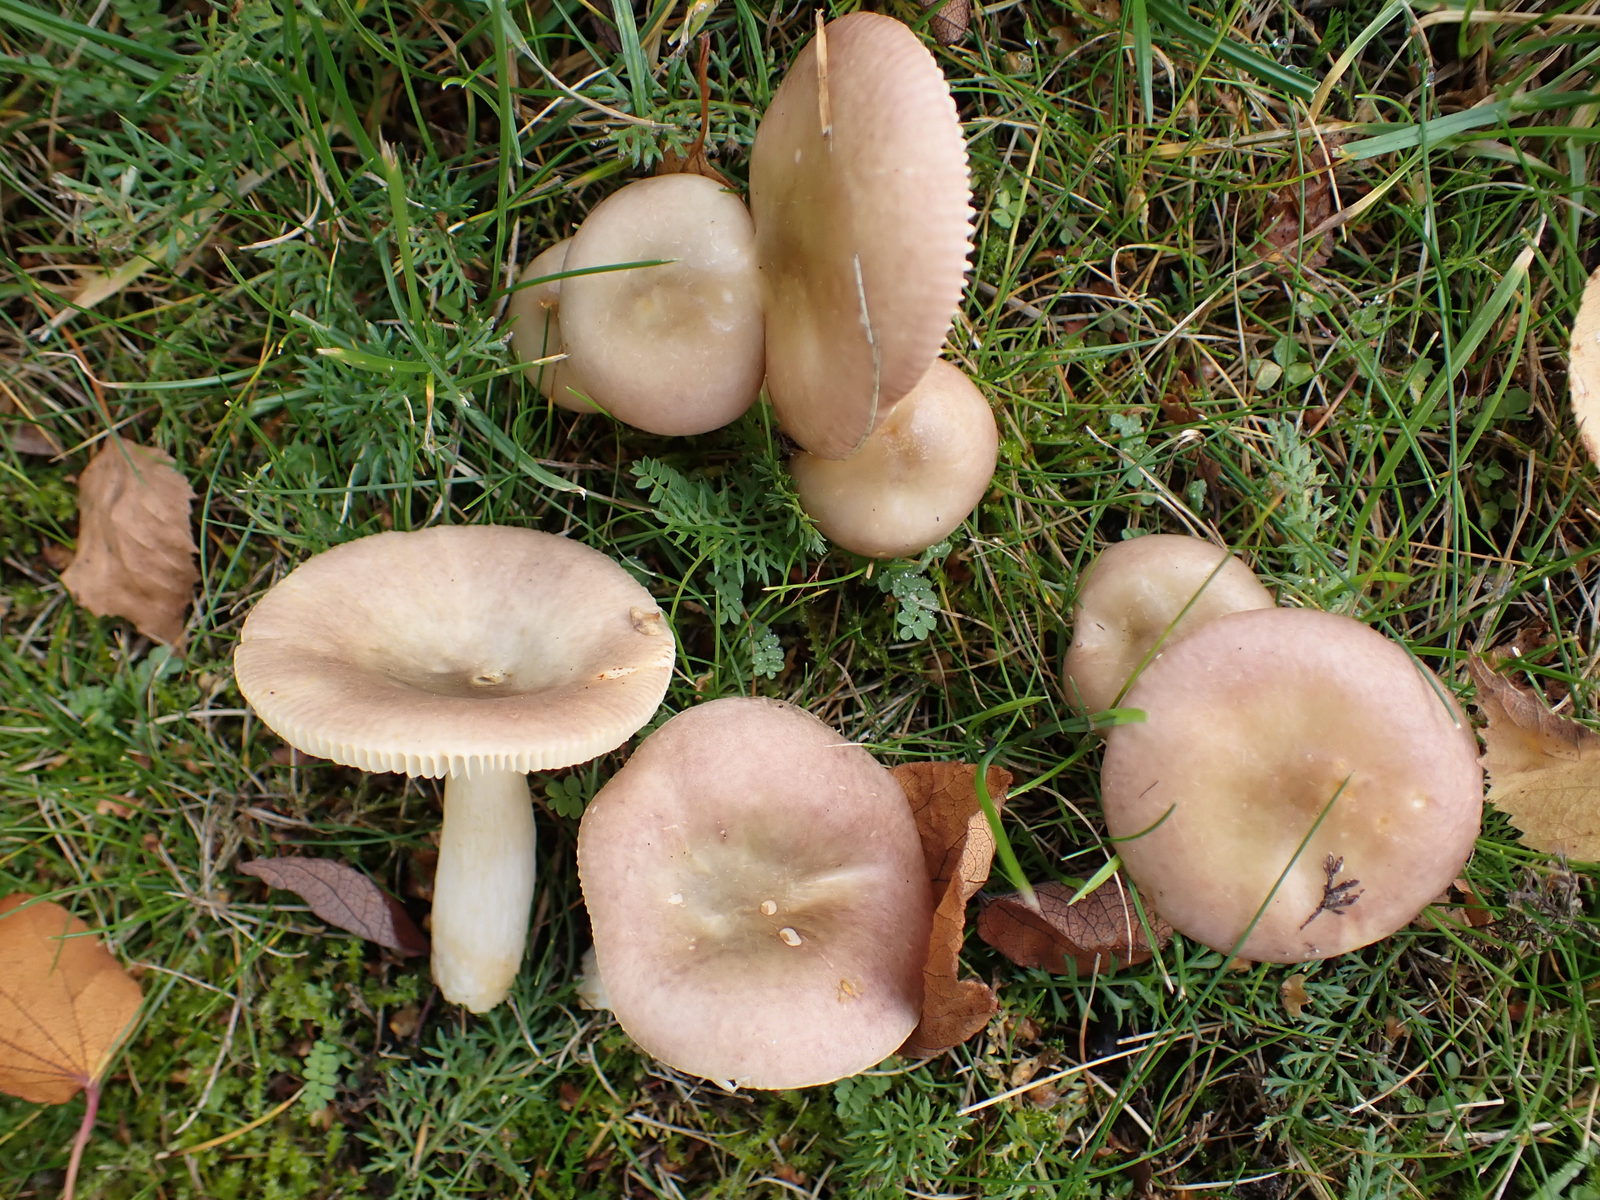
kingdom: Fungi
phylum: Basidiomycota
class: Agaricomycetes
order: Russulales
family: Russulaceae
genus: Russula
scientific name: Russula versicolor
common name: foranderlig skørhat
